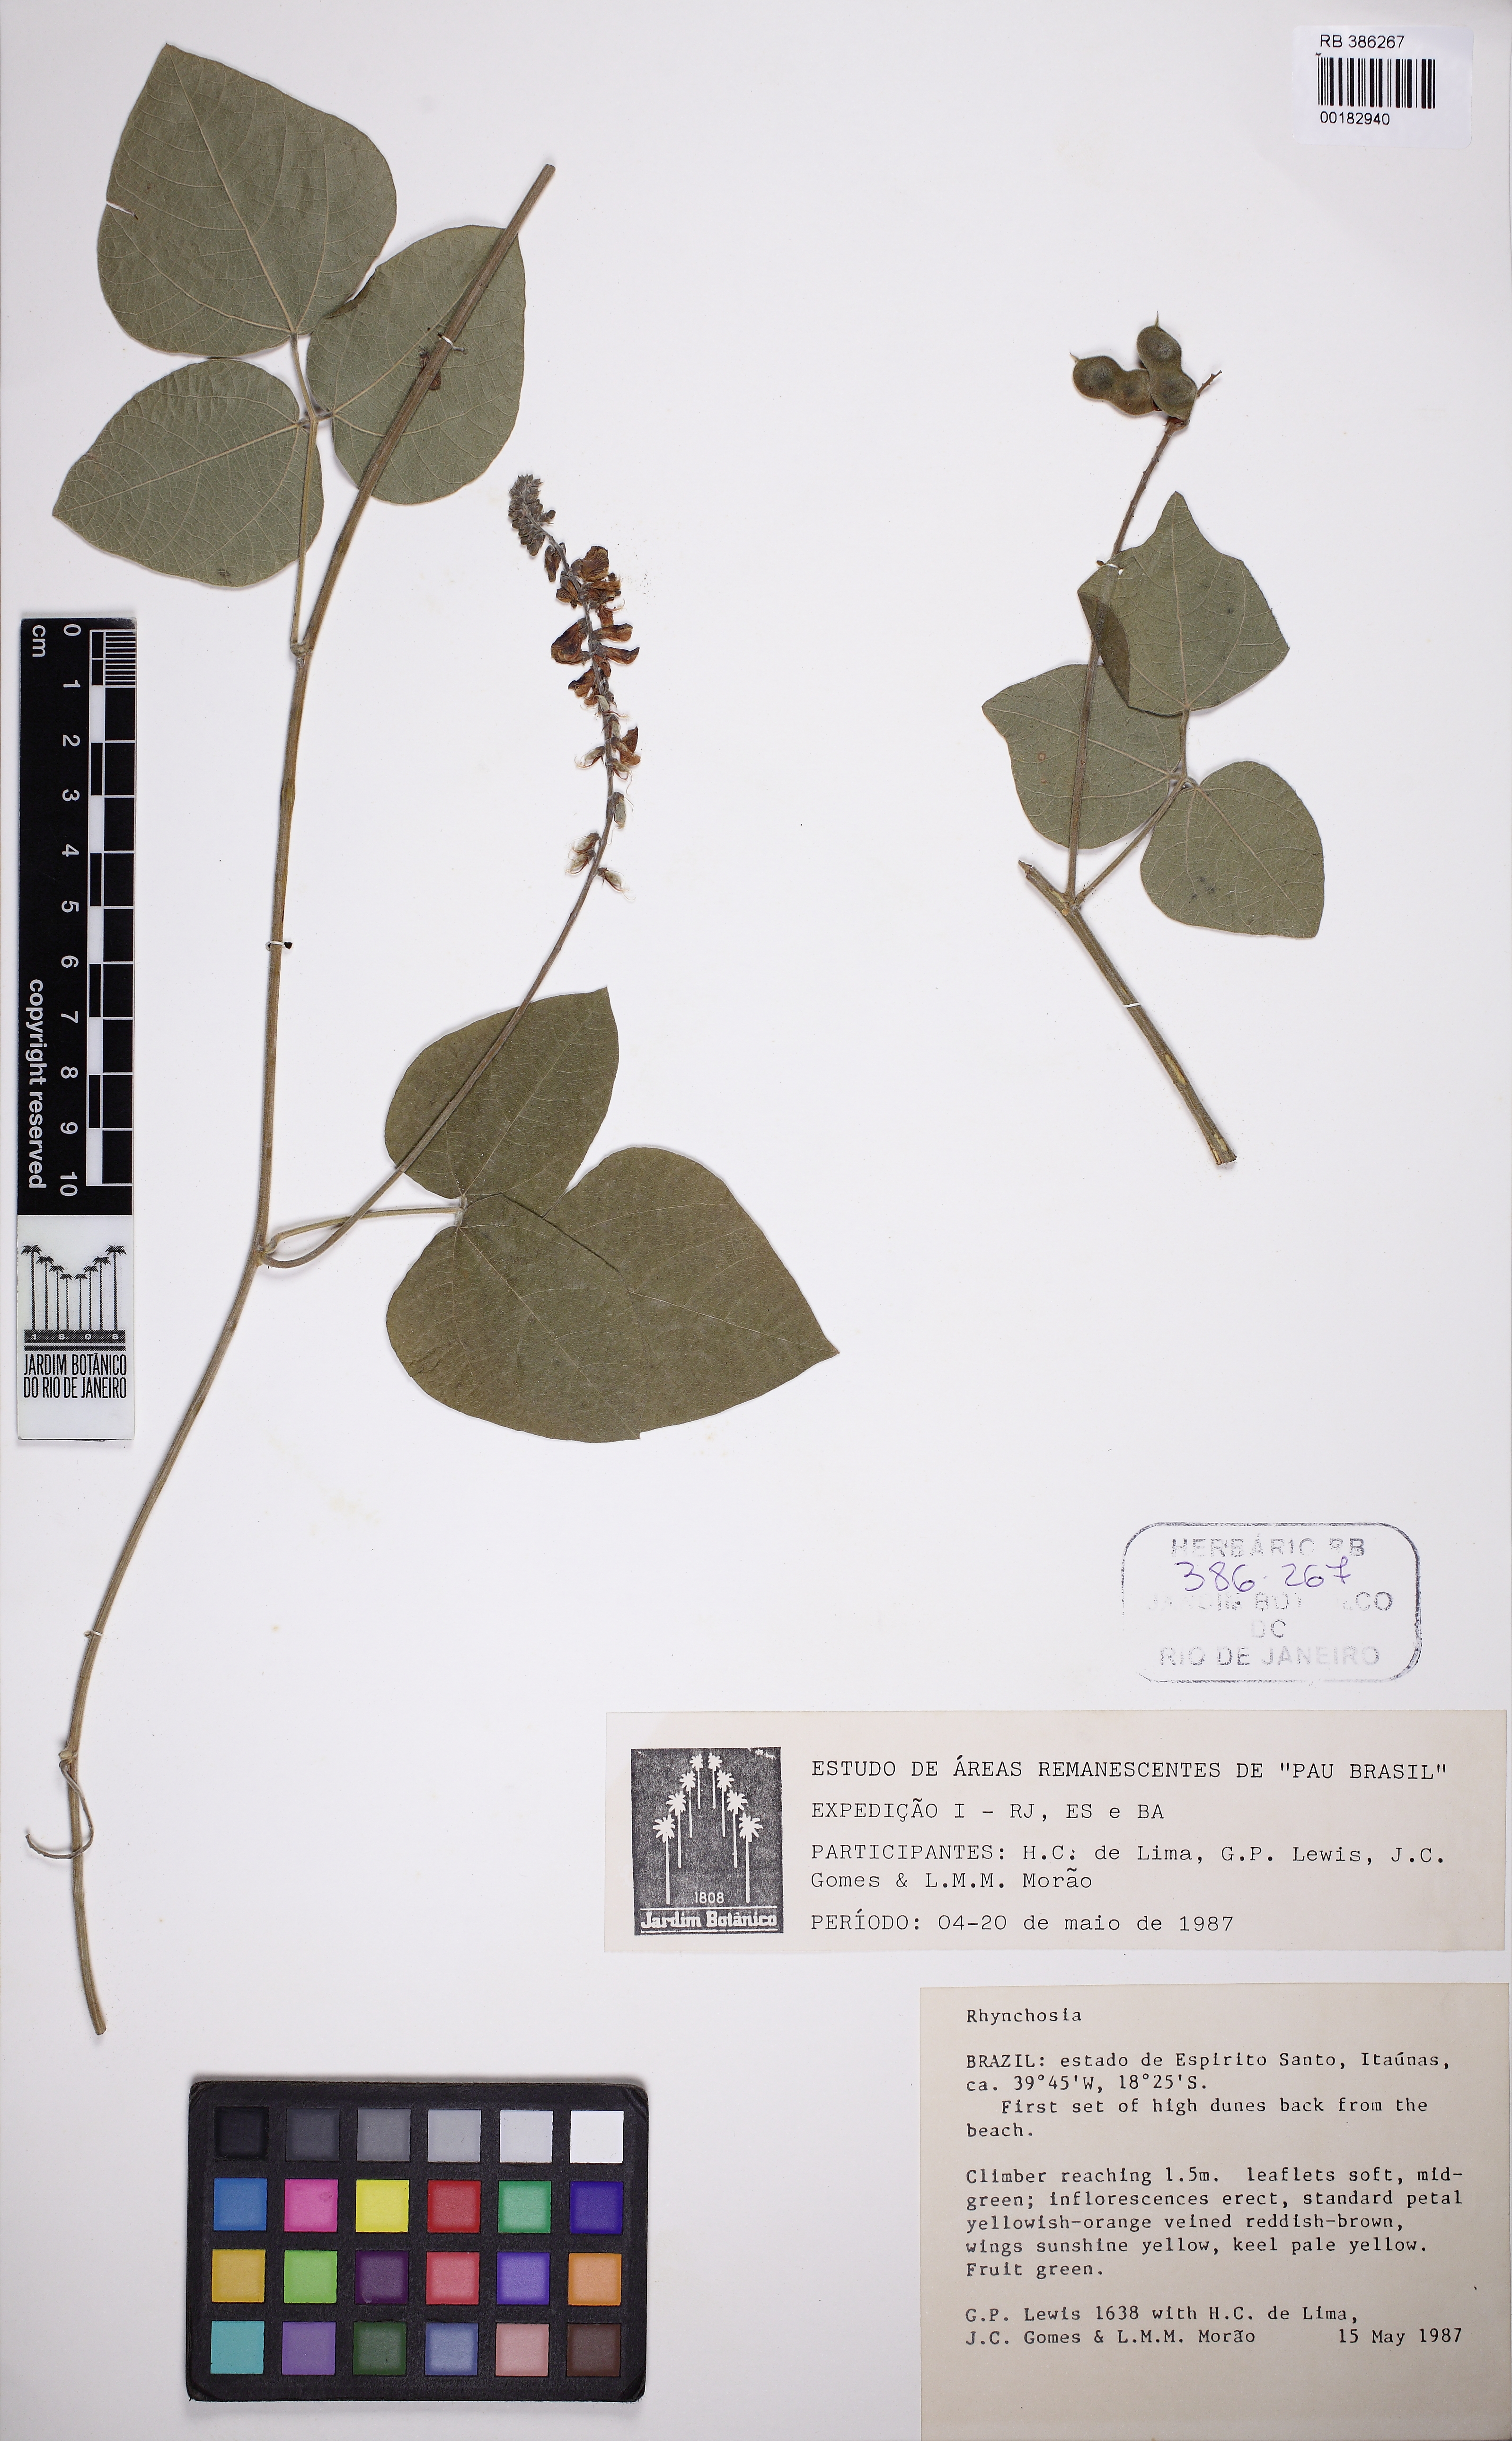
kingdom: Plantae
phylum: Tracheophyta
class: Magnoliopsida
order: Fabales
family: Fabaceae
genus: Rhynchosia
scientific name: Rhynchosia phaseoloides
